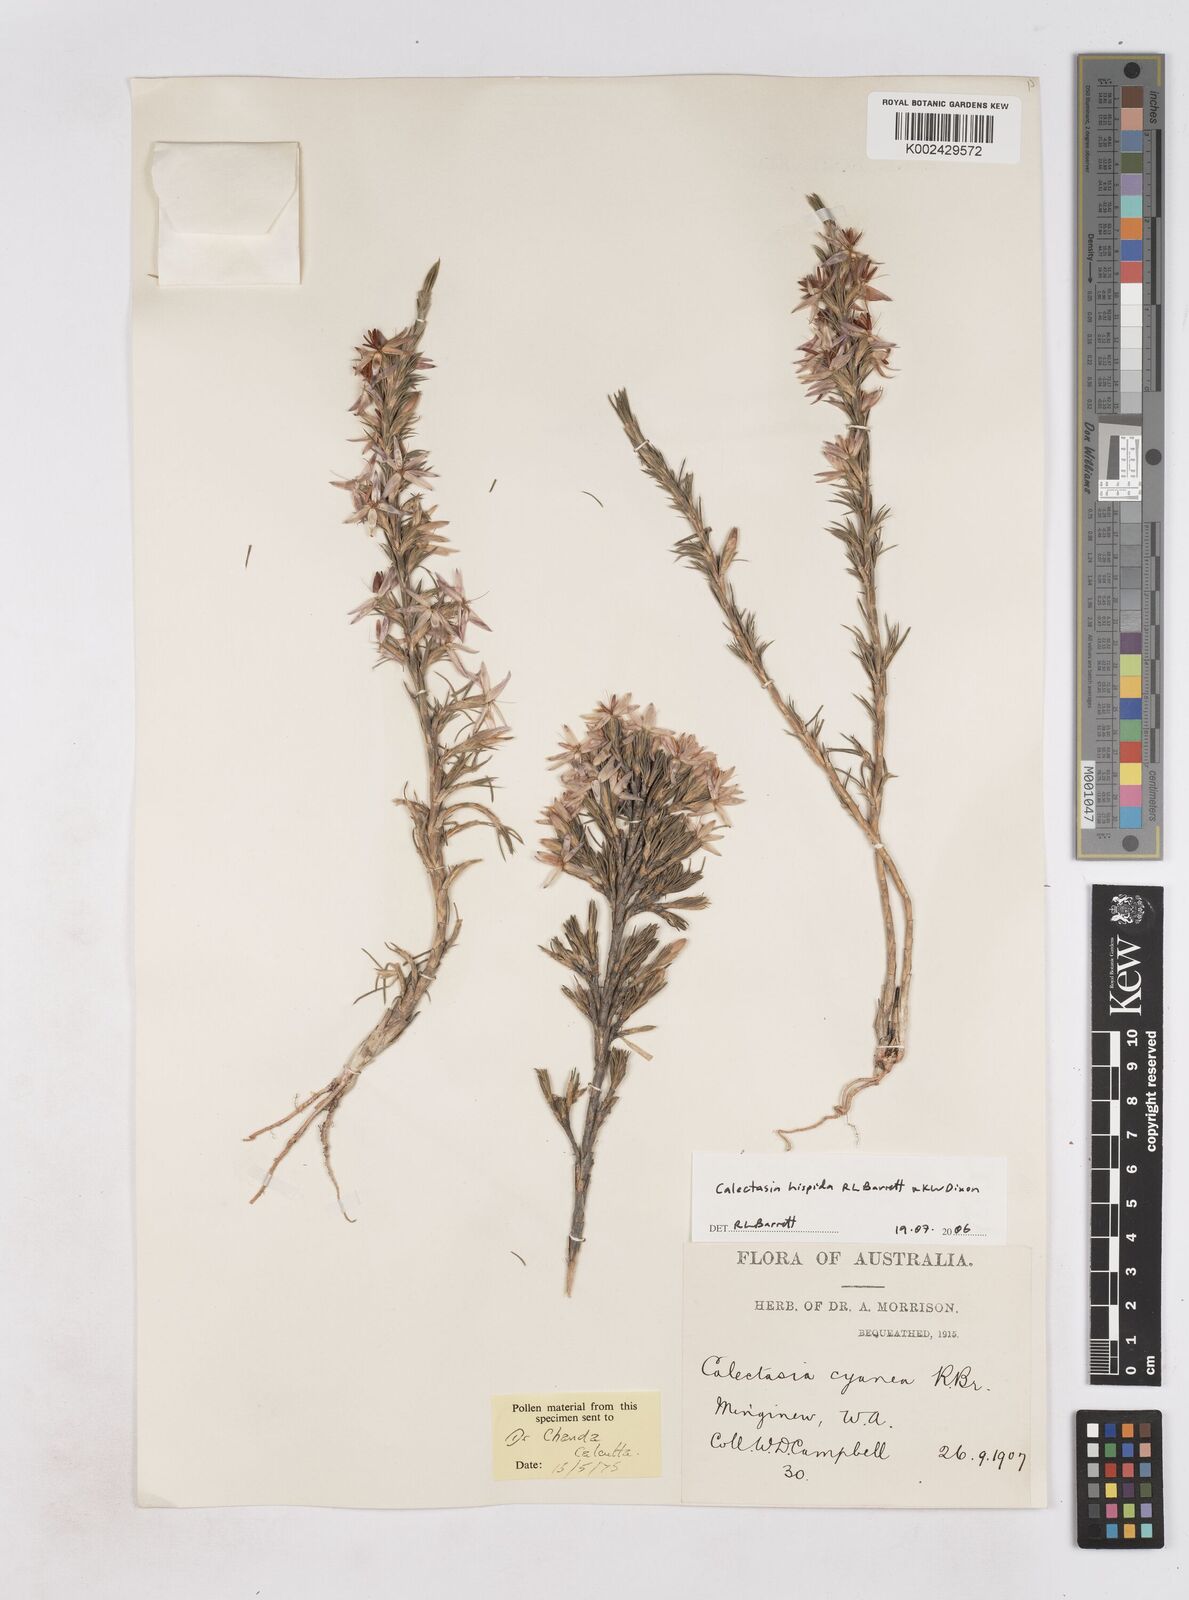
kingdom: Plantae
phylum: Tracheophyta
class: Liliopsida
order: Arecales
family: Dasypogonaceae
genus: Calectasia
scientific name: Calectasia hispida
